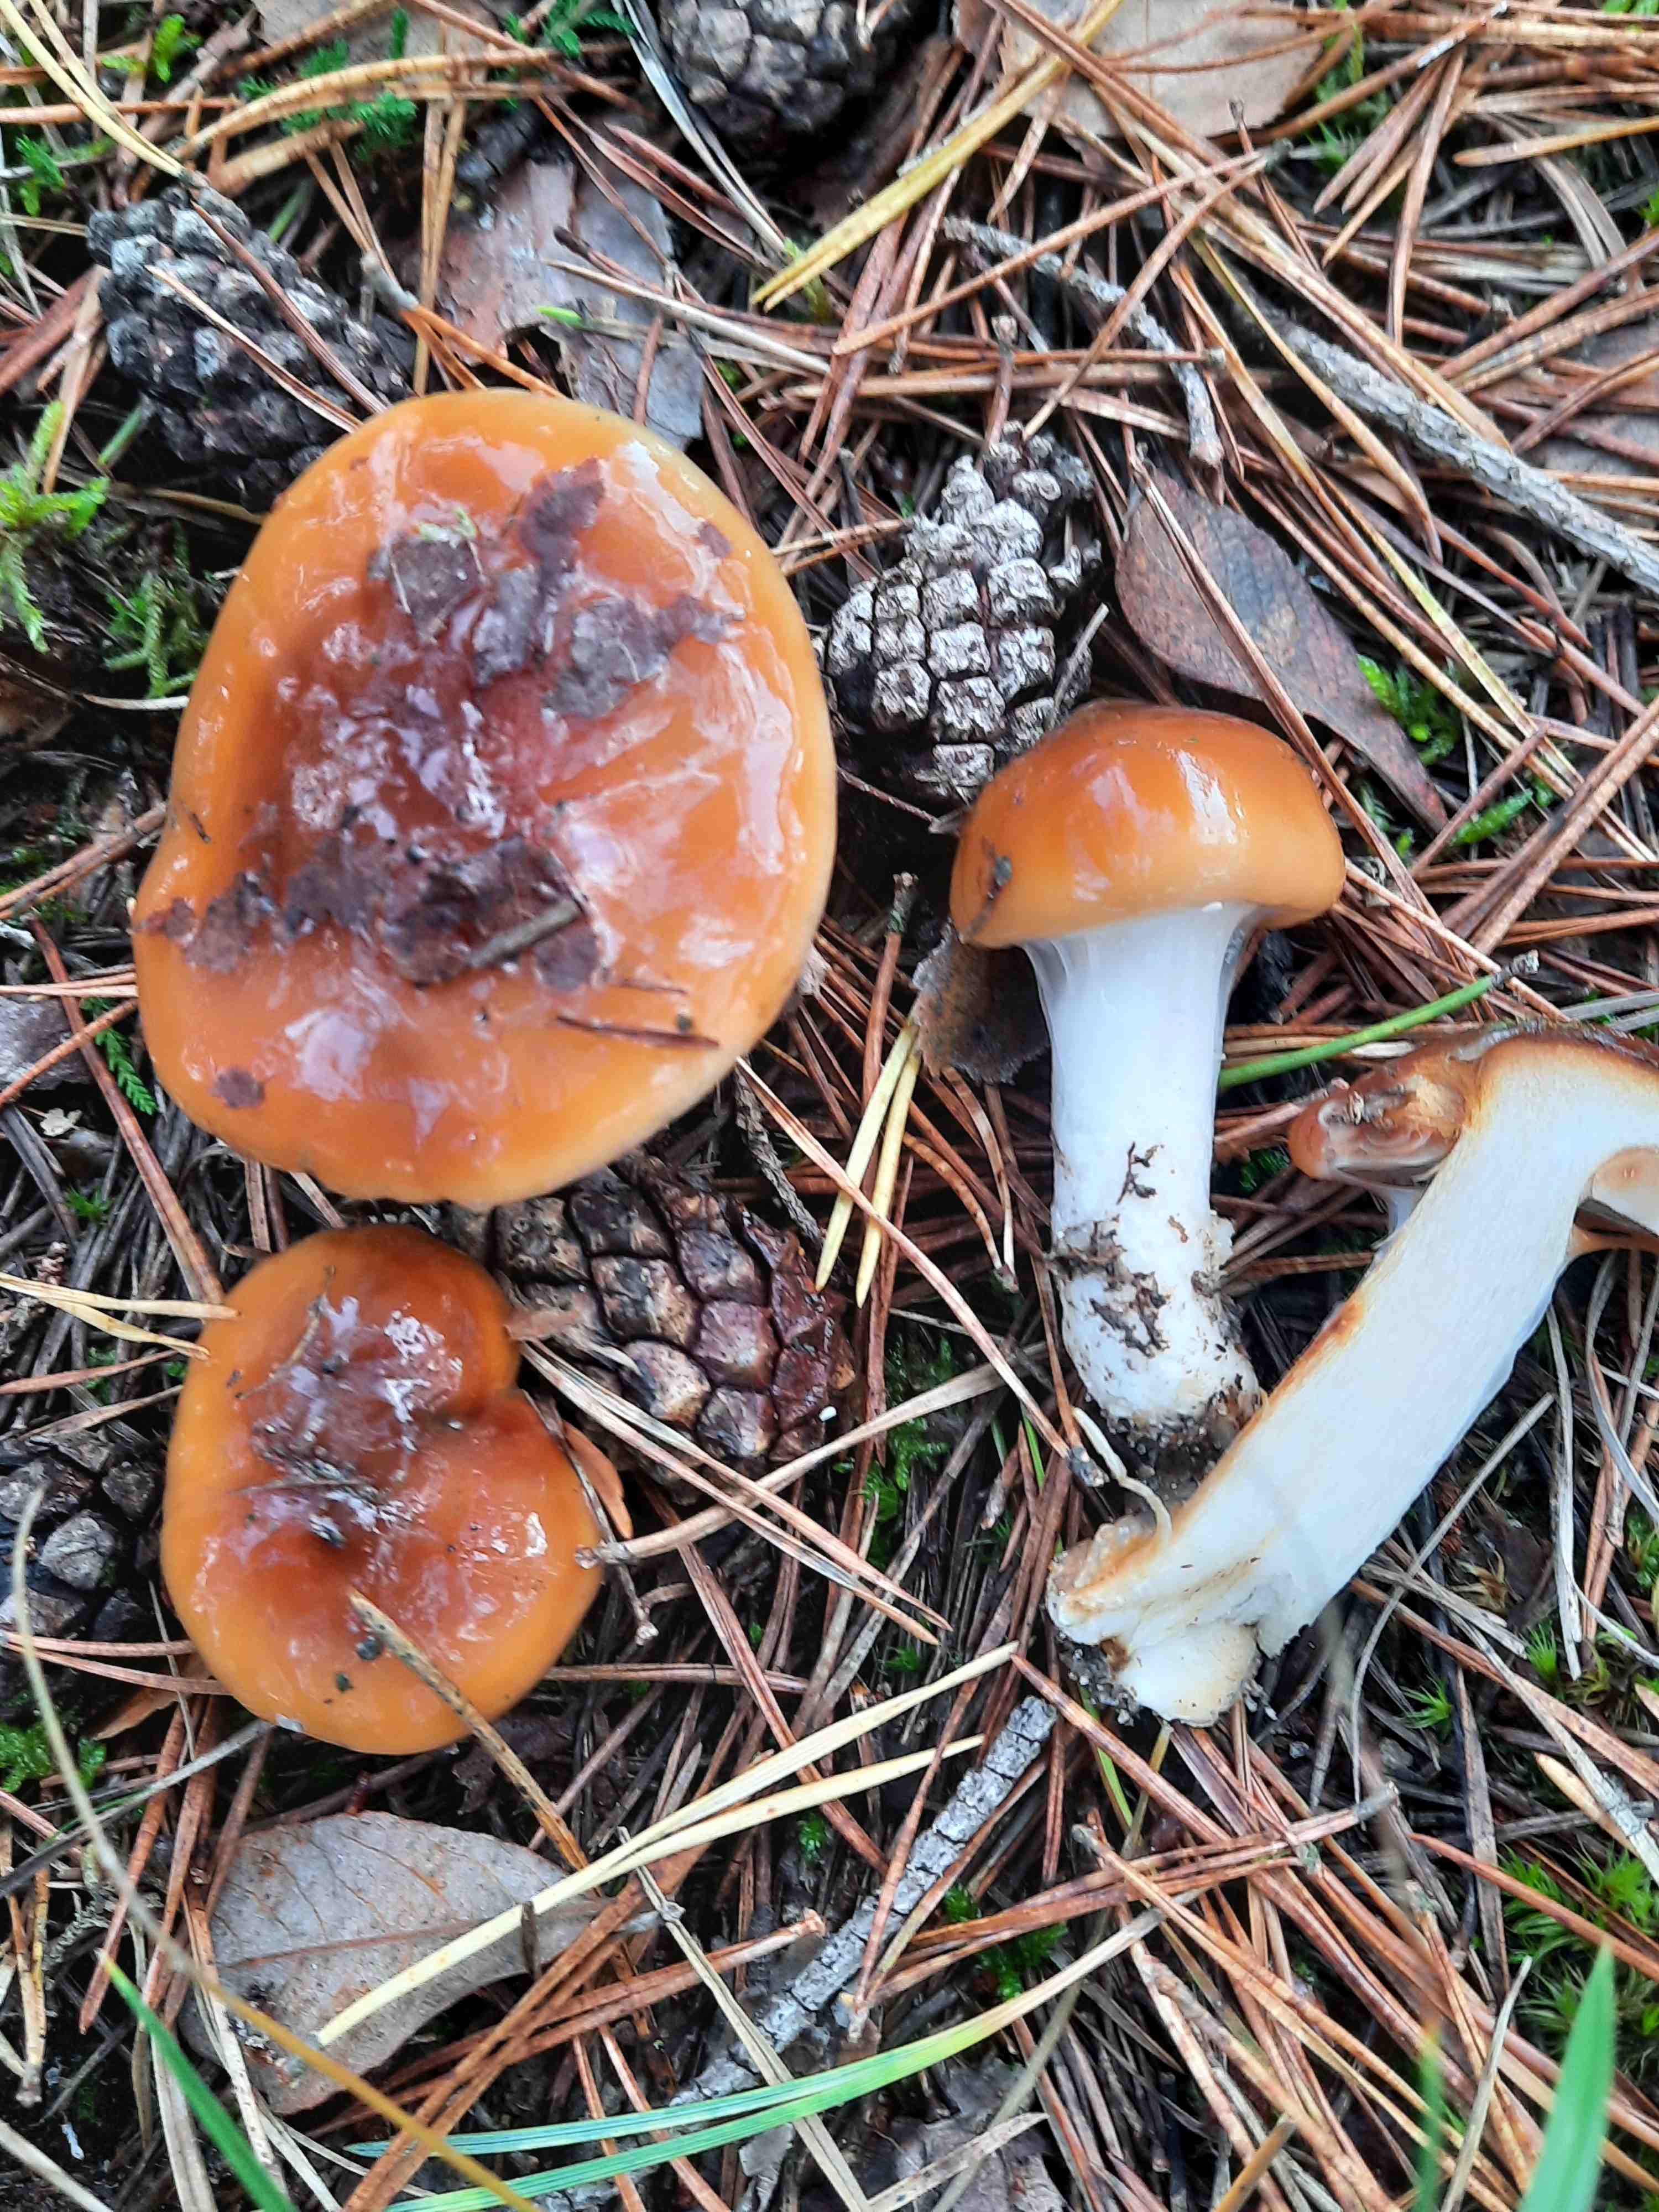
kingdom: Fungi
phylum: Basidiomycota
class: Agaricomycetes
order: Agaricales
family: Cortinariaceae
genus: Cortinarius
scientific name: Cortinarius mucosus
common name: kastaniebrun slørhat
